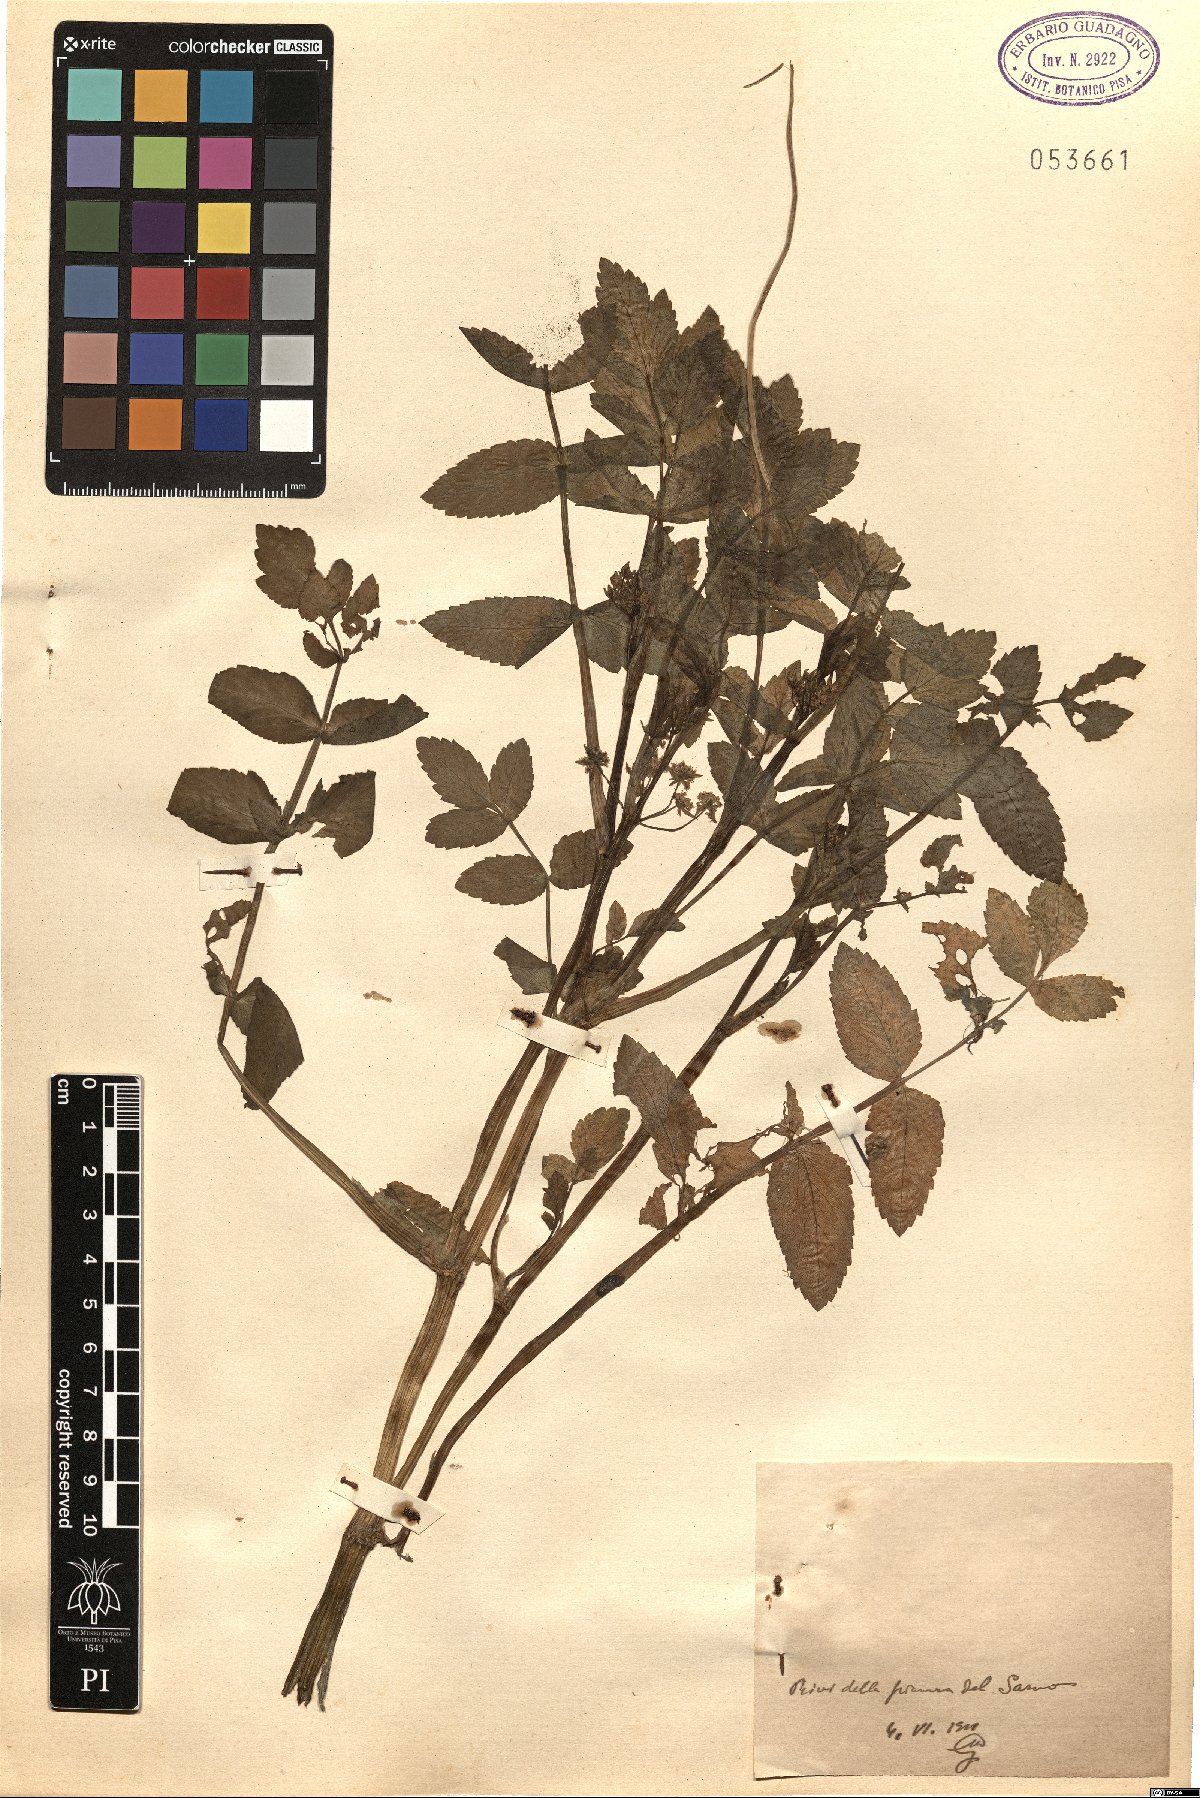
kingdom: Plantae
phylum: Tracheophyta
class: Magnoliopsida
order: Apiales
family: Apiaceae
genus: Helosciadium
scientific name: Helosciadium
